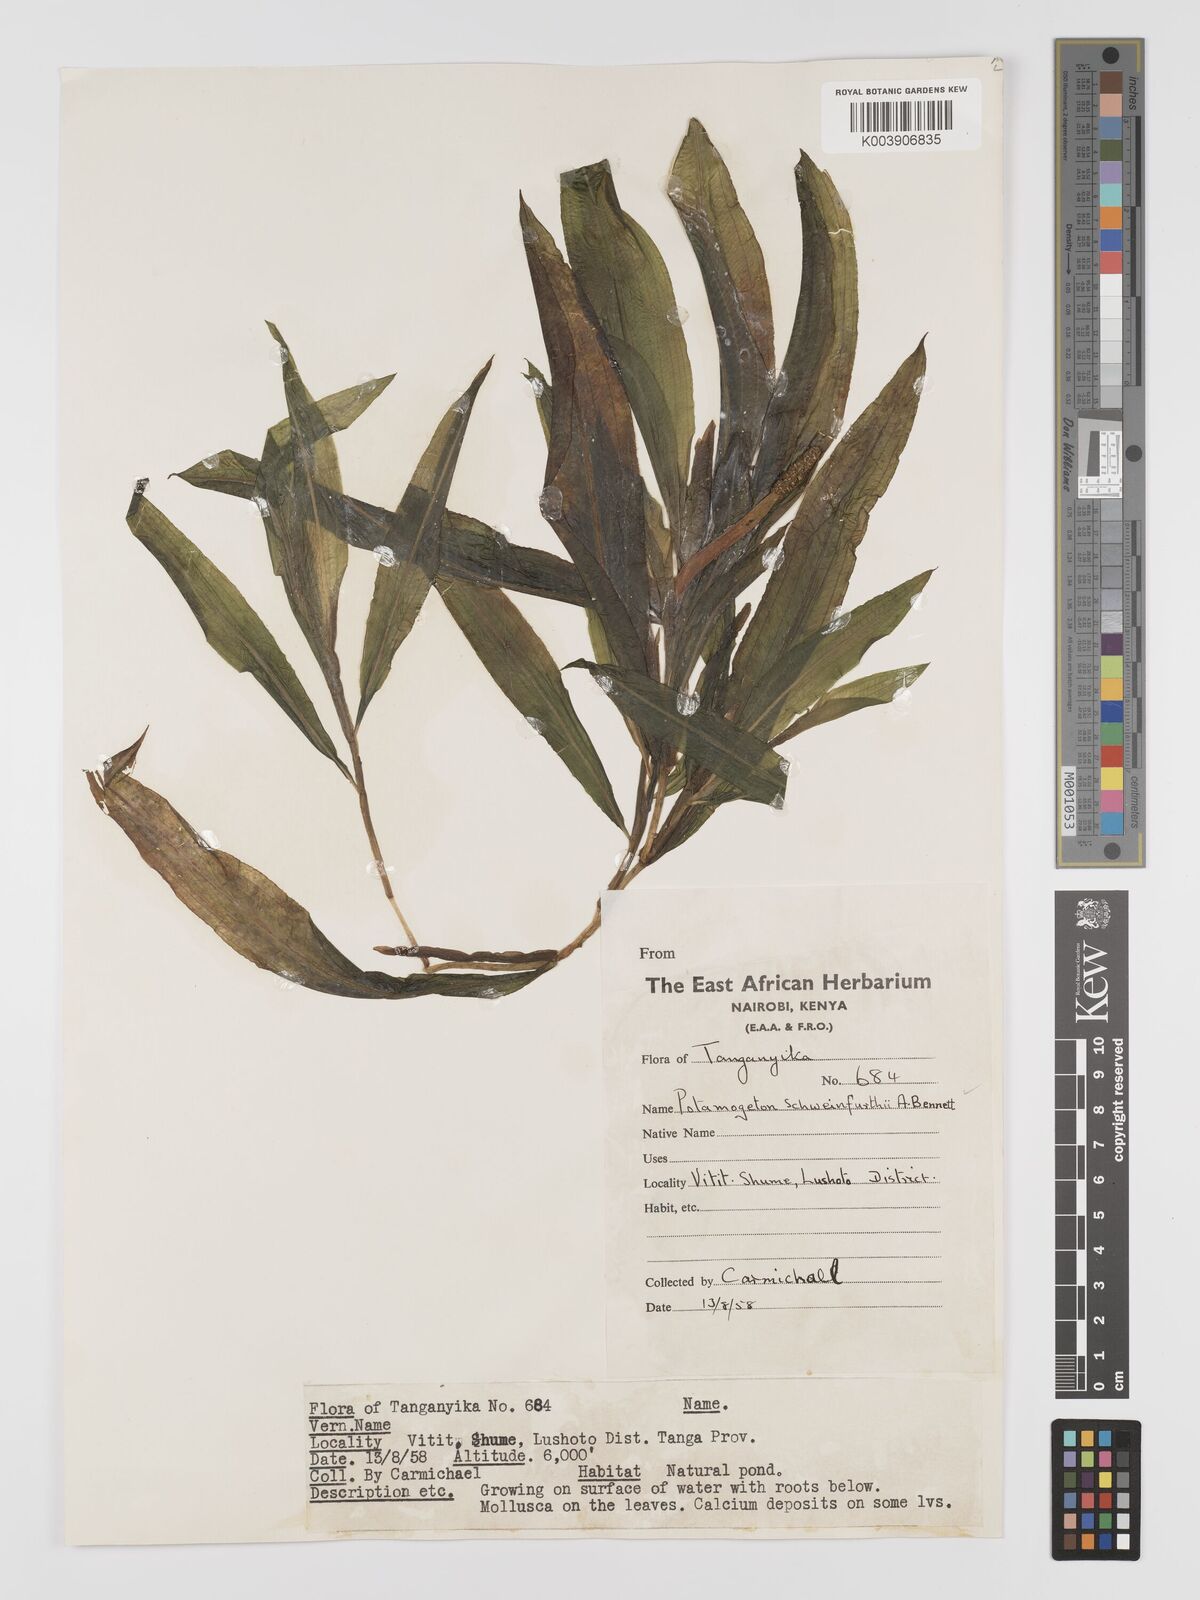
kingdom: Plantae
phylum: Tracheophyta
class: Liliopsida
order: Alismatales
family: Potamogetonaceae
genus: Potamogeton
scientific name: Potamogeton schweinfurthii
